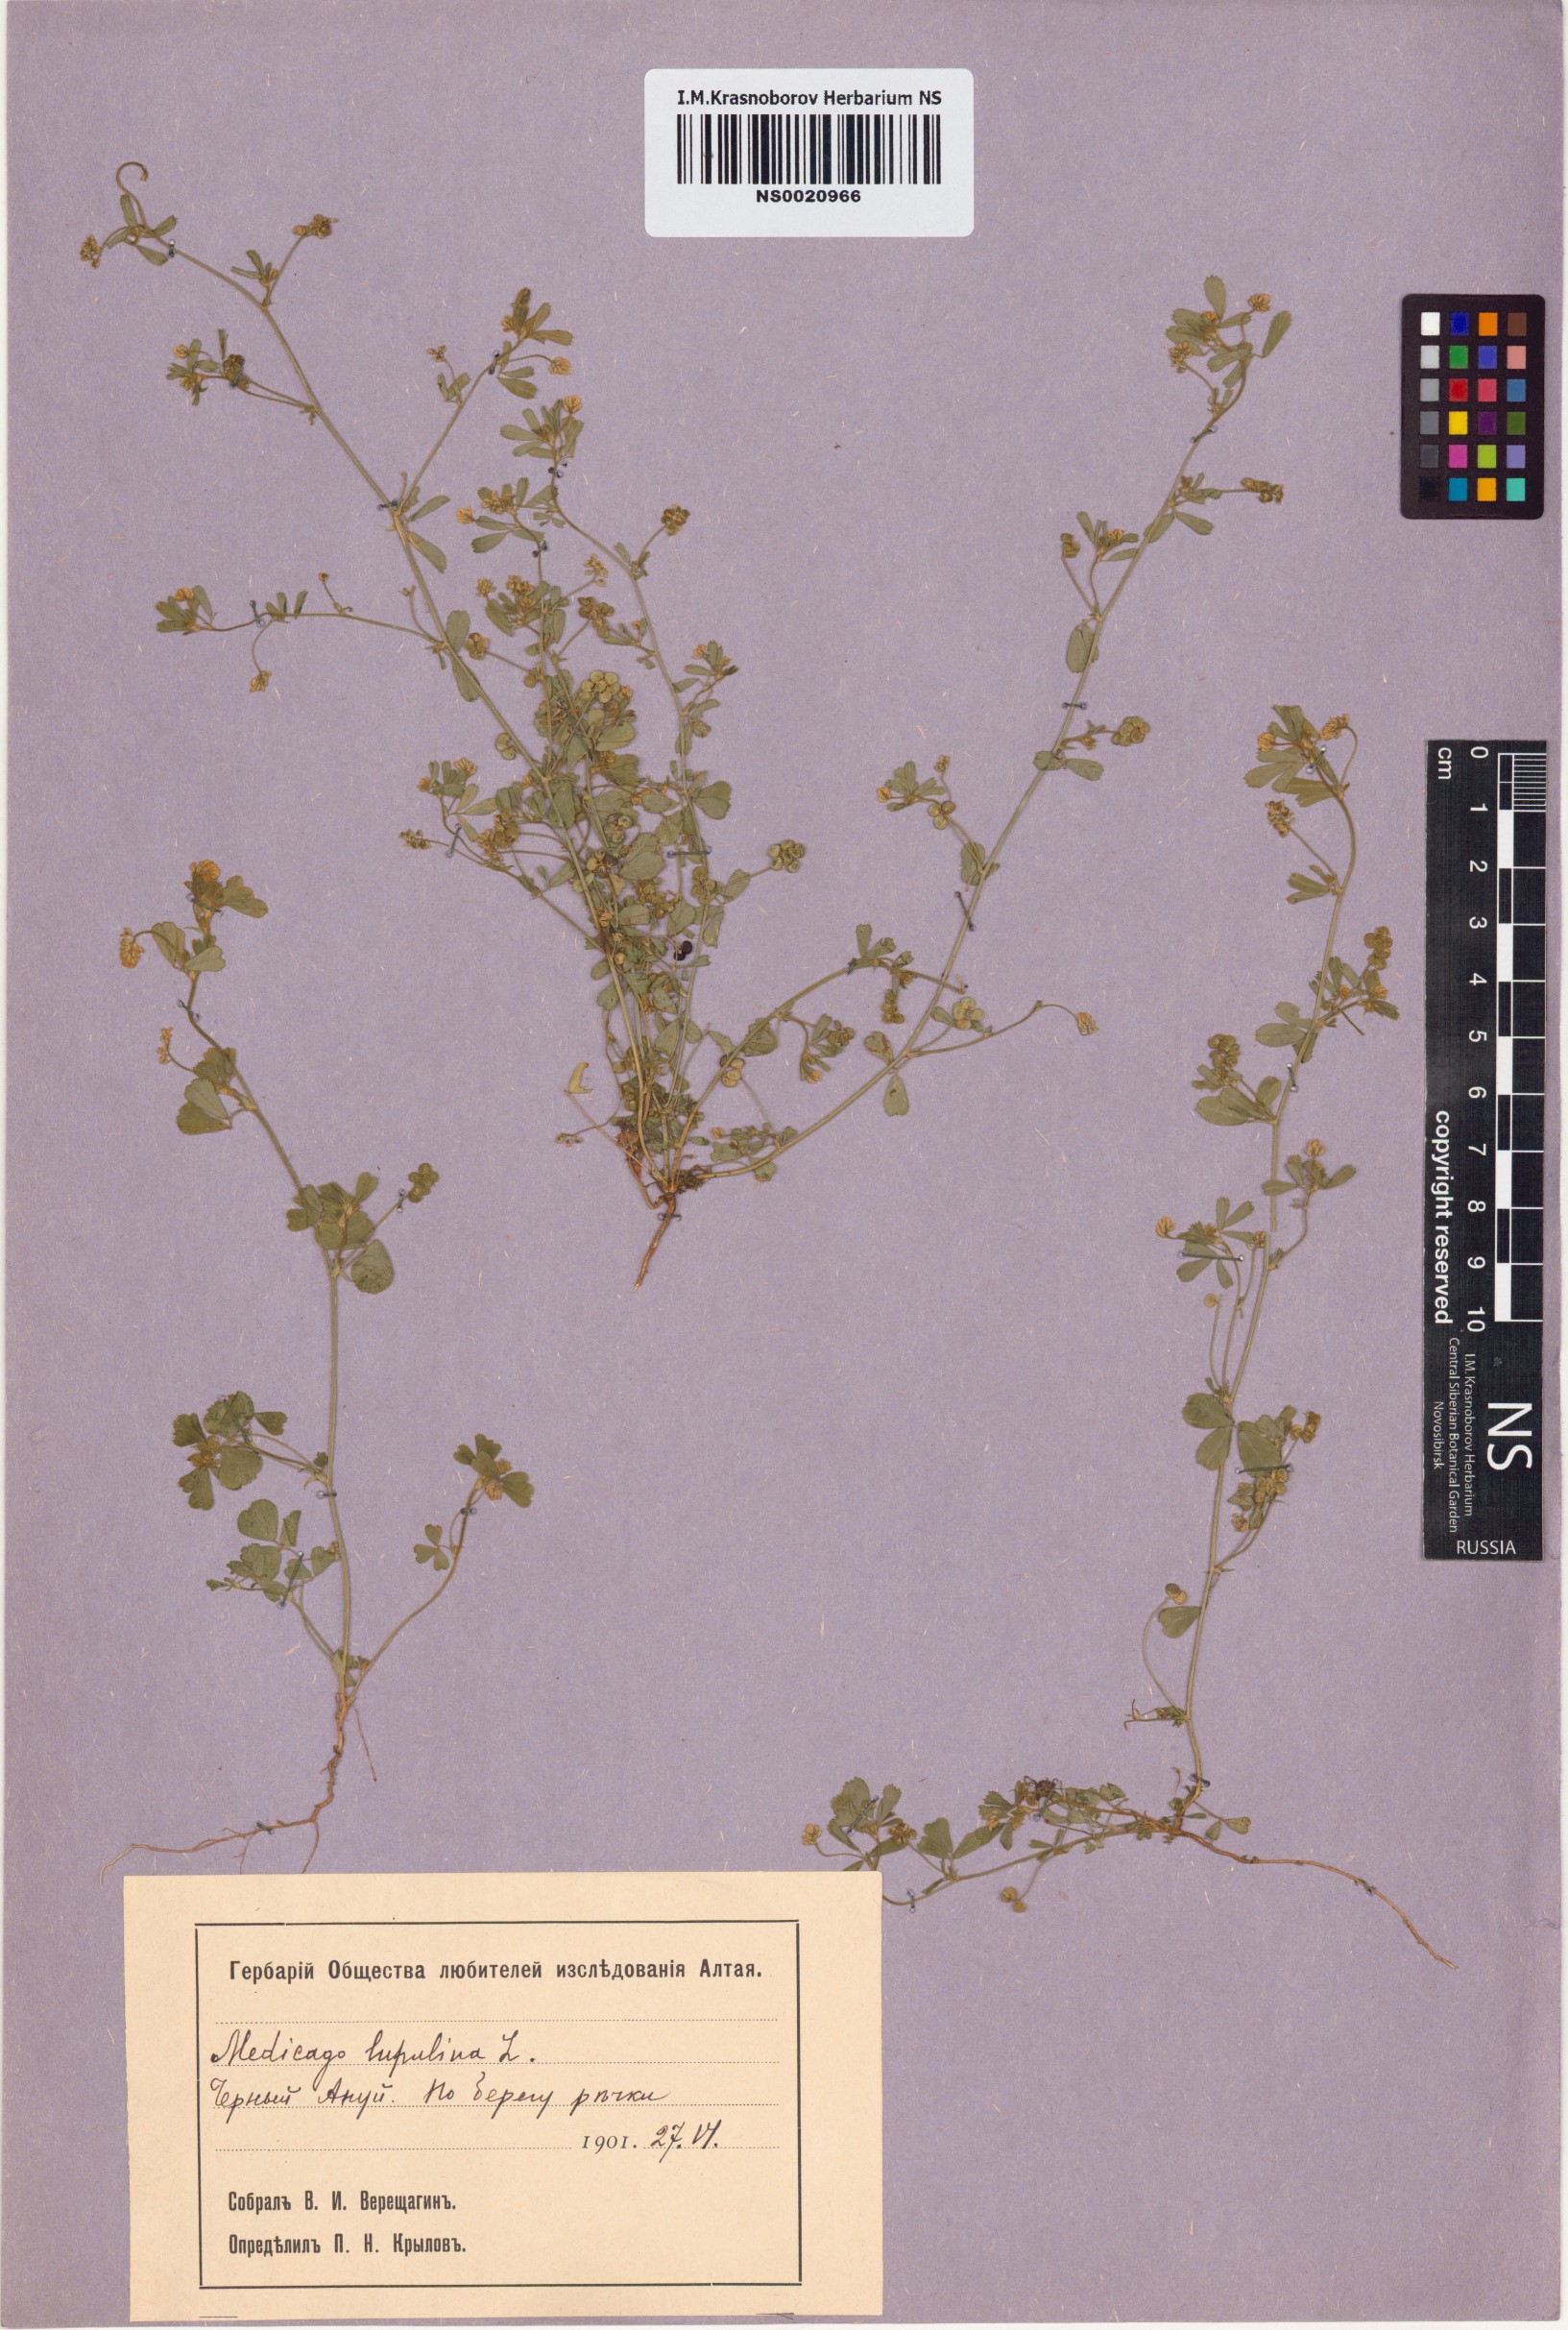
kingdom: Plantae
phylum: Tracheophyta
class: Magnoliopsida
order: Fabales
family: Fabaceae
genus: Medicago
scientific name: Medicago lupulina
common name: Black medick
